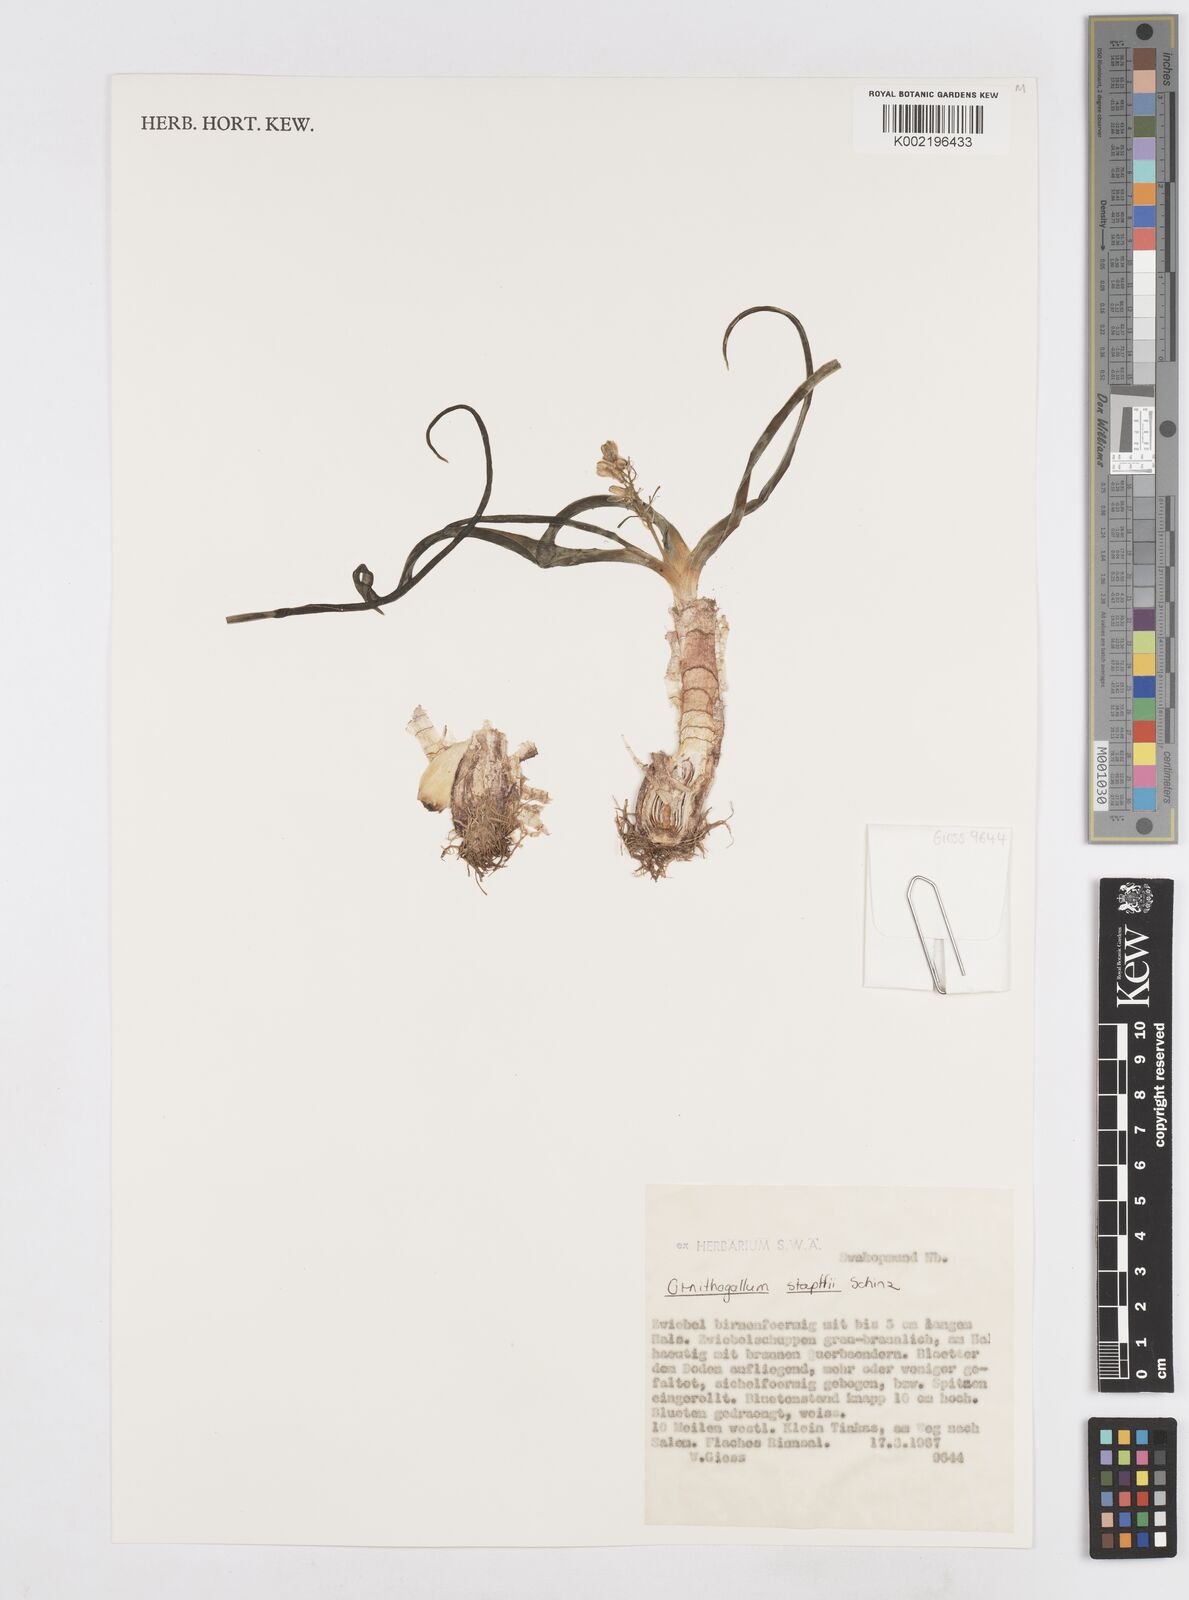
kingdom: Plantae
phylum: Tracheophyta
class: Liliopsida
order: Asparagales
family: Asparagaceae
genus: Albuca
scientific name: Albuca stapffii
